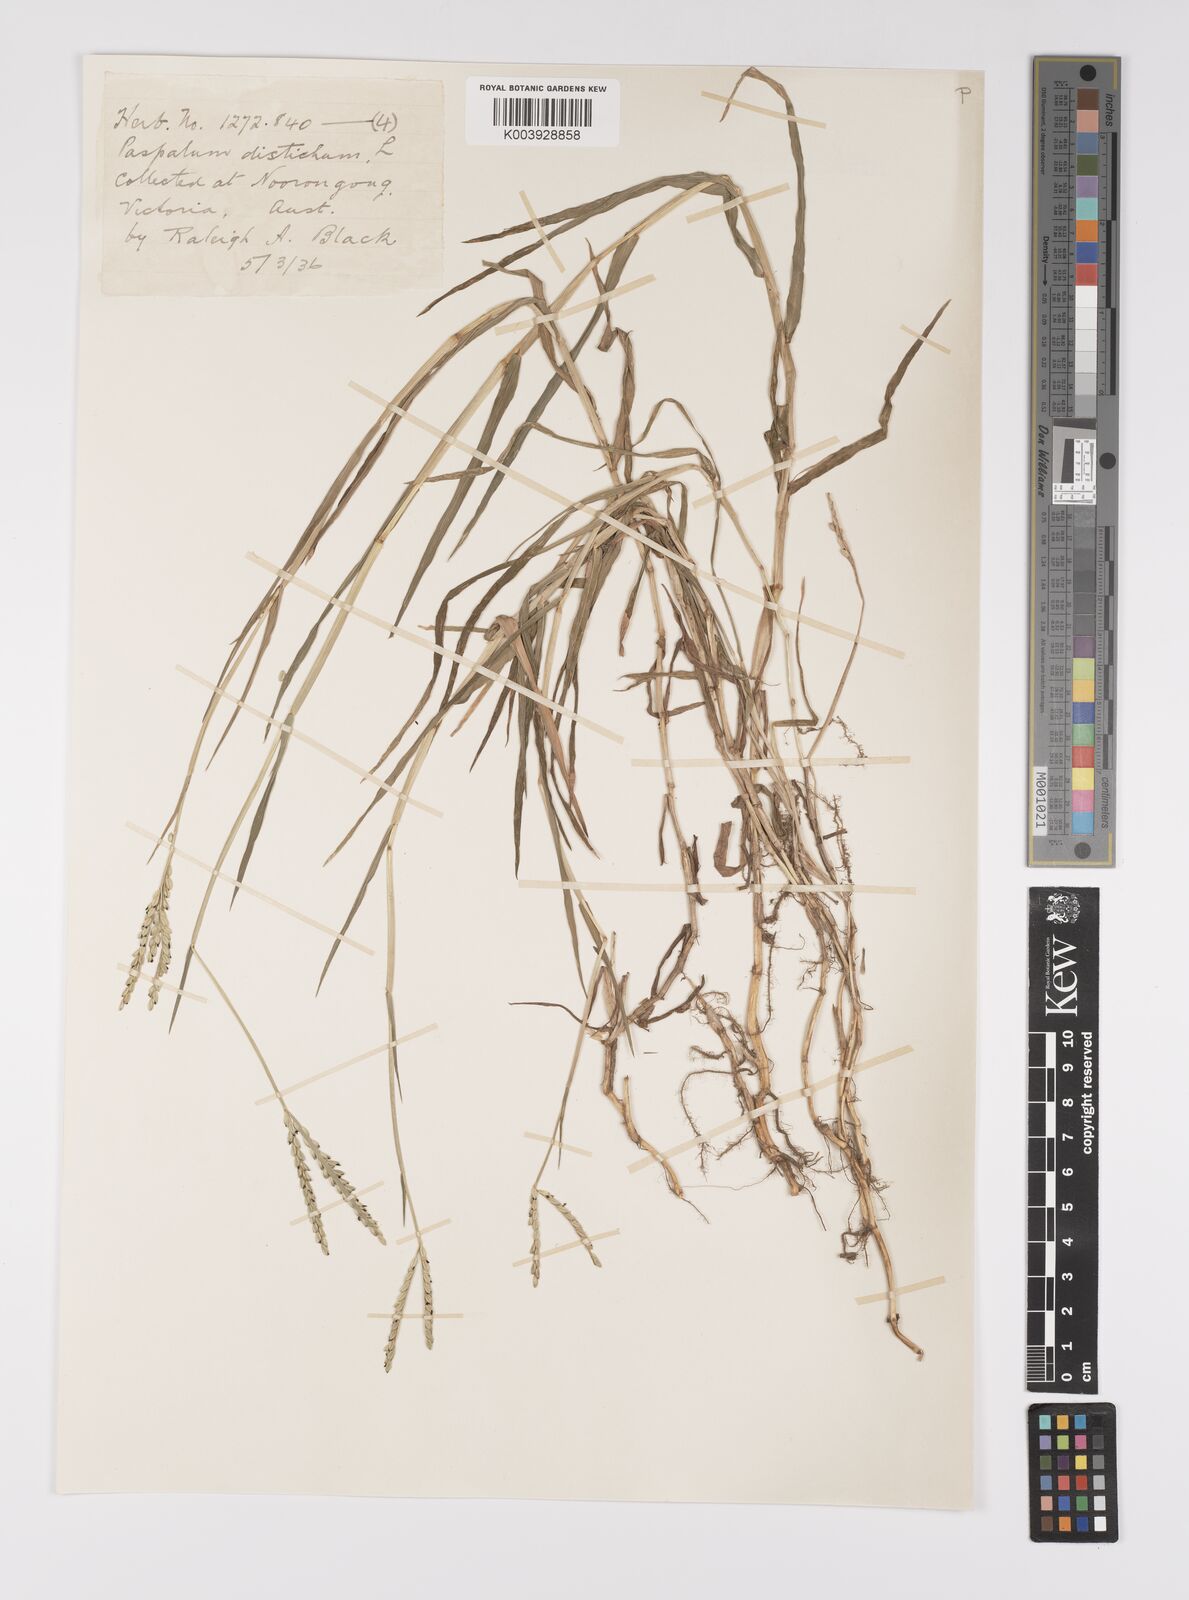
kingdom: Plantae
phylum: Tracheophyta
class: Liliopsida
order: Poales
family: Poaceae
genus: Paspalum
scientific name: Paspalum distichum
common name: Knotgrass
